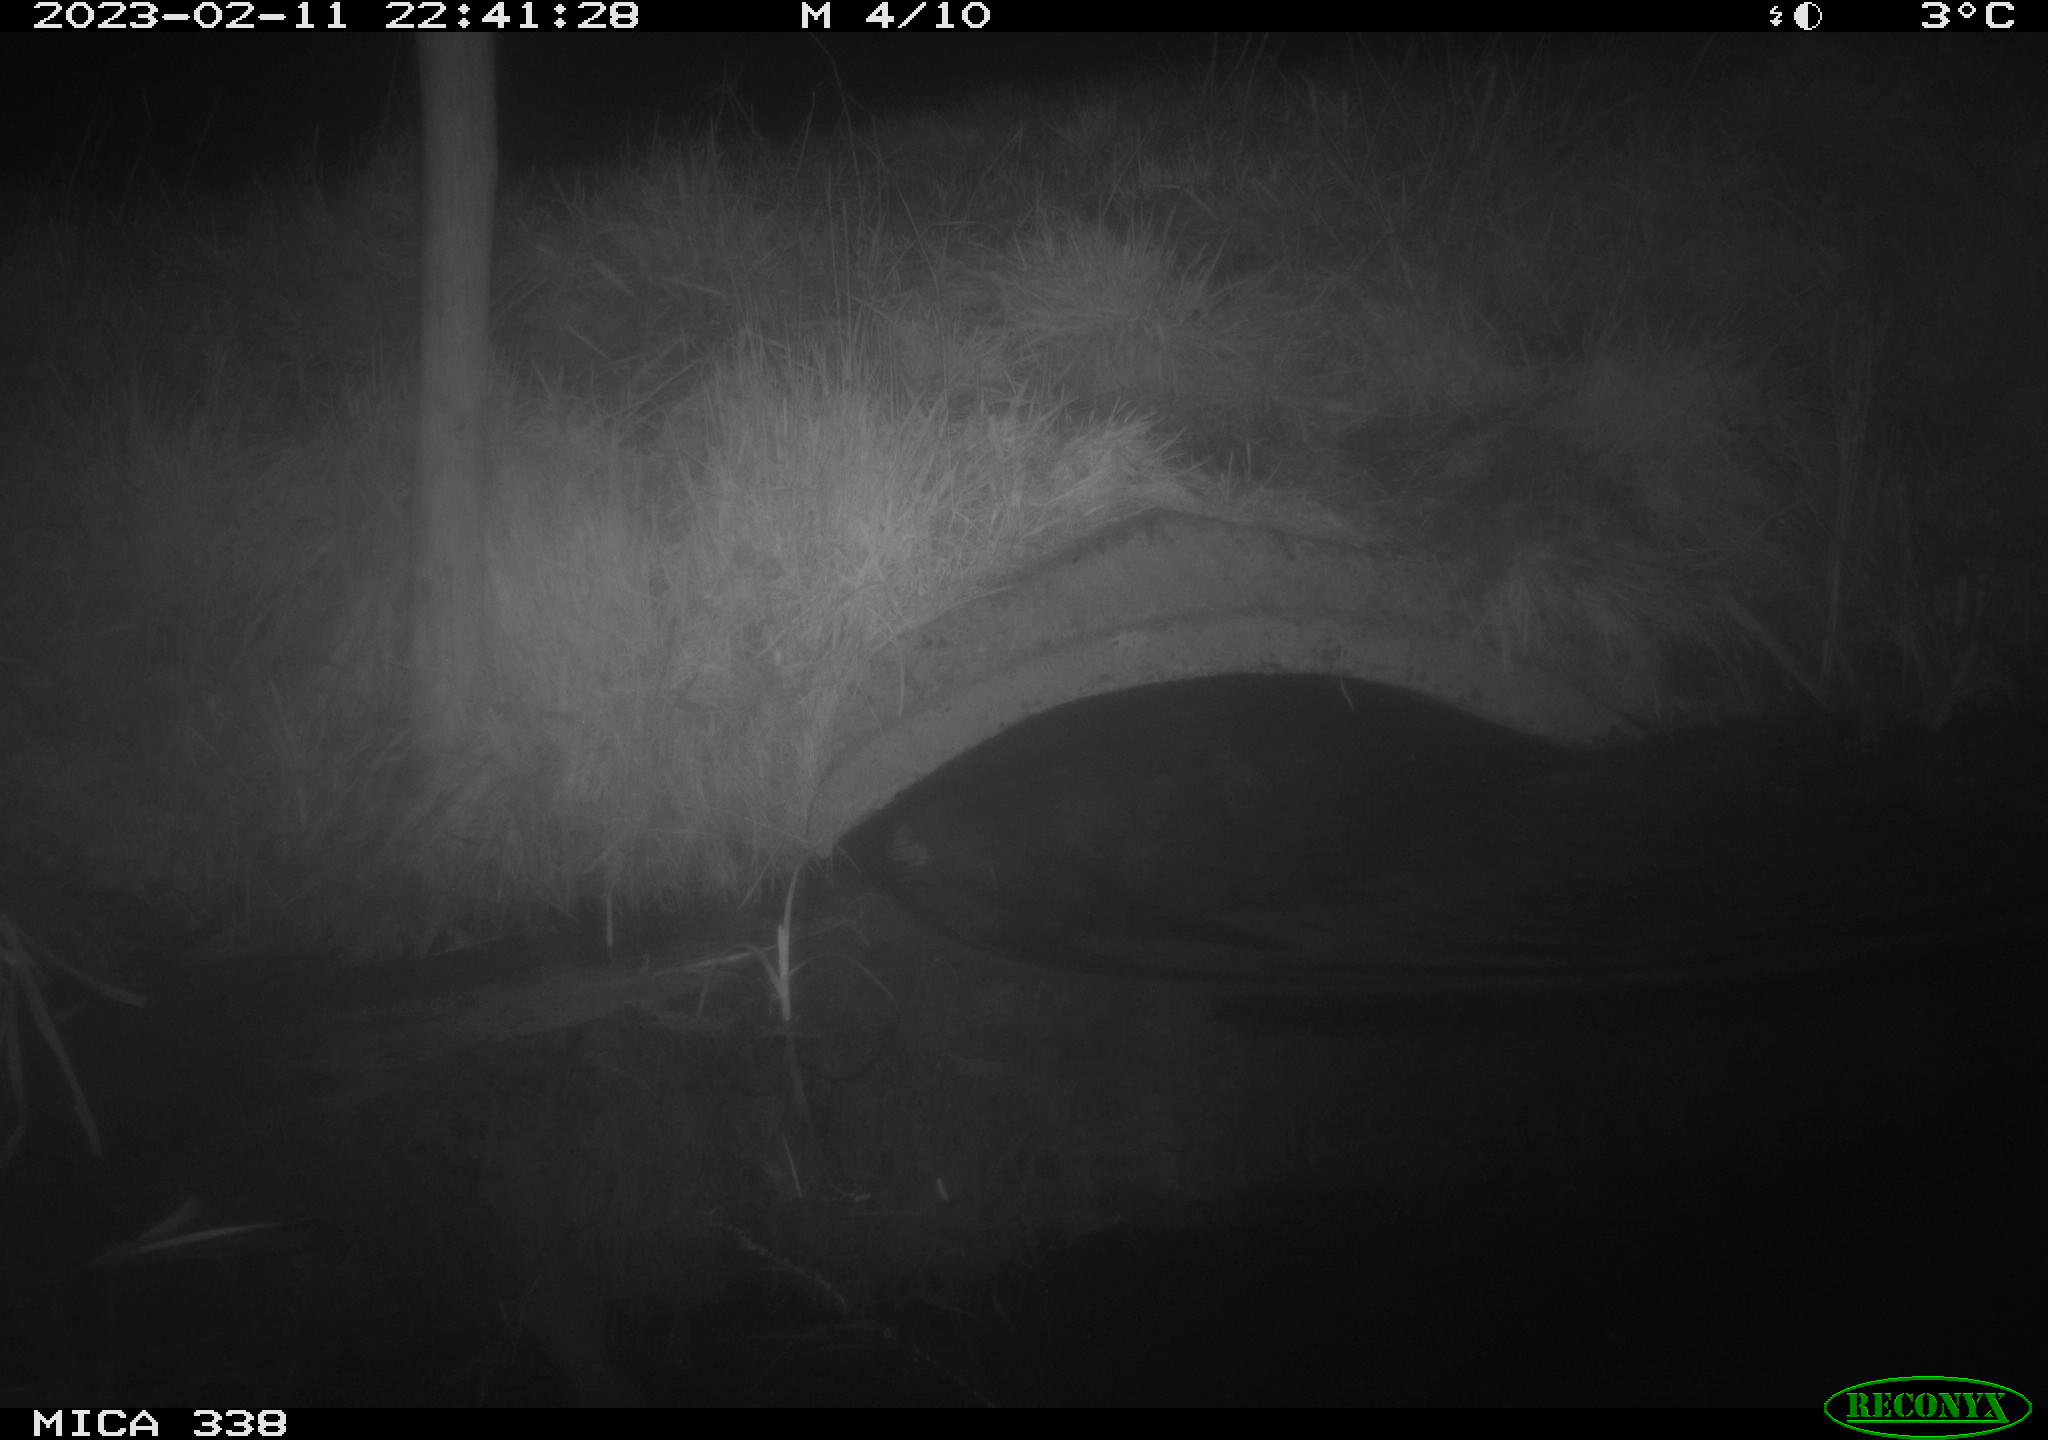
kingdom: Animalia
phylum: Chordata
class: Mammalia
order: Carnivora
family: Mustelidae
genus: Lutra
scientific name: Lutra lutra
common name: European otter
